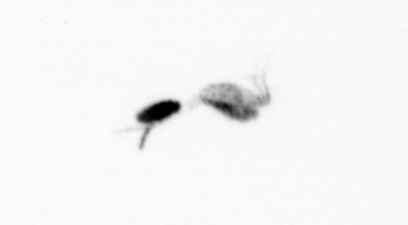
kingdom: Animalia
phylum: Arthropoda
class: Copepoda
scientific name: Copepoda
